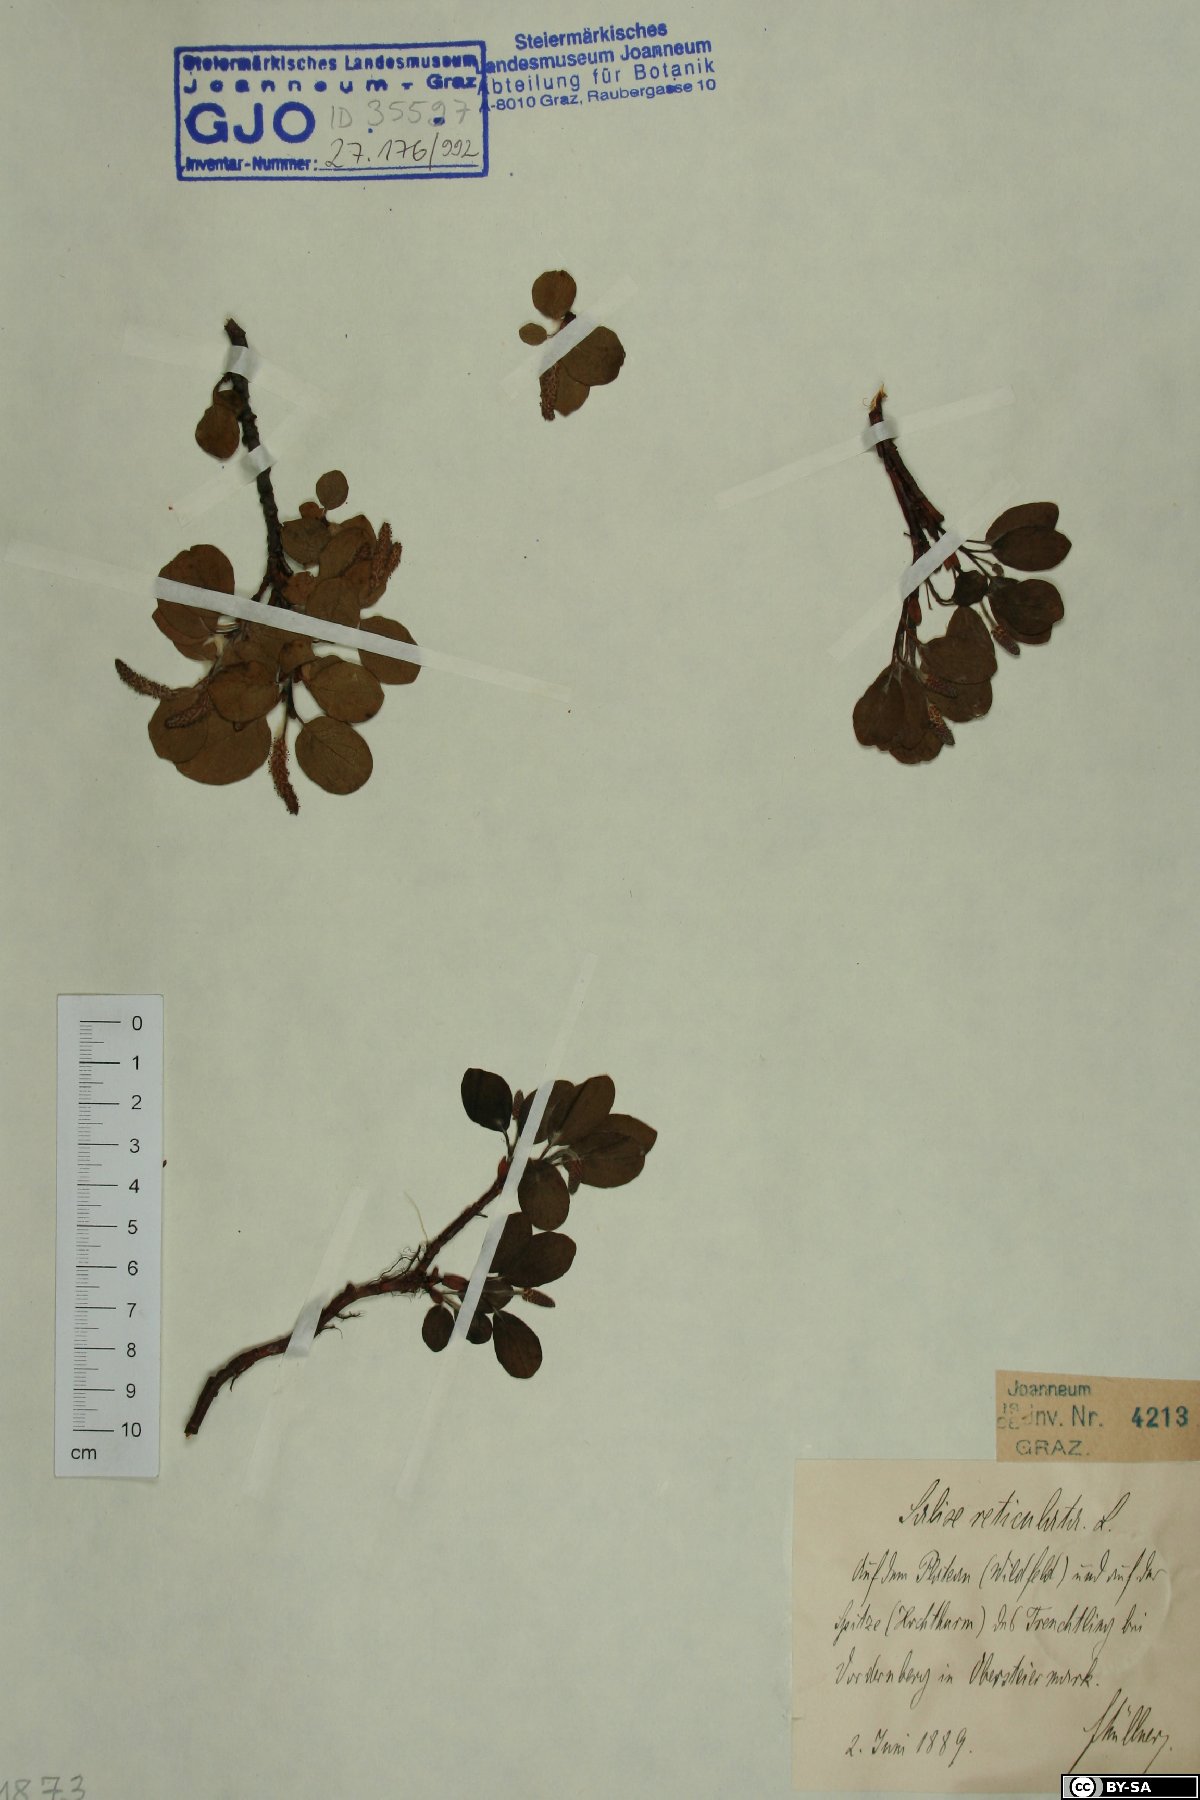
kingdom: Plantae
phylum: Tracheophyta
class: Magnoliopsida
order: Malpighiales
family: Salicaceae
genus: Salix
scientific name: Salix reticulata
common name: Net-leaved willow
